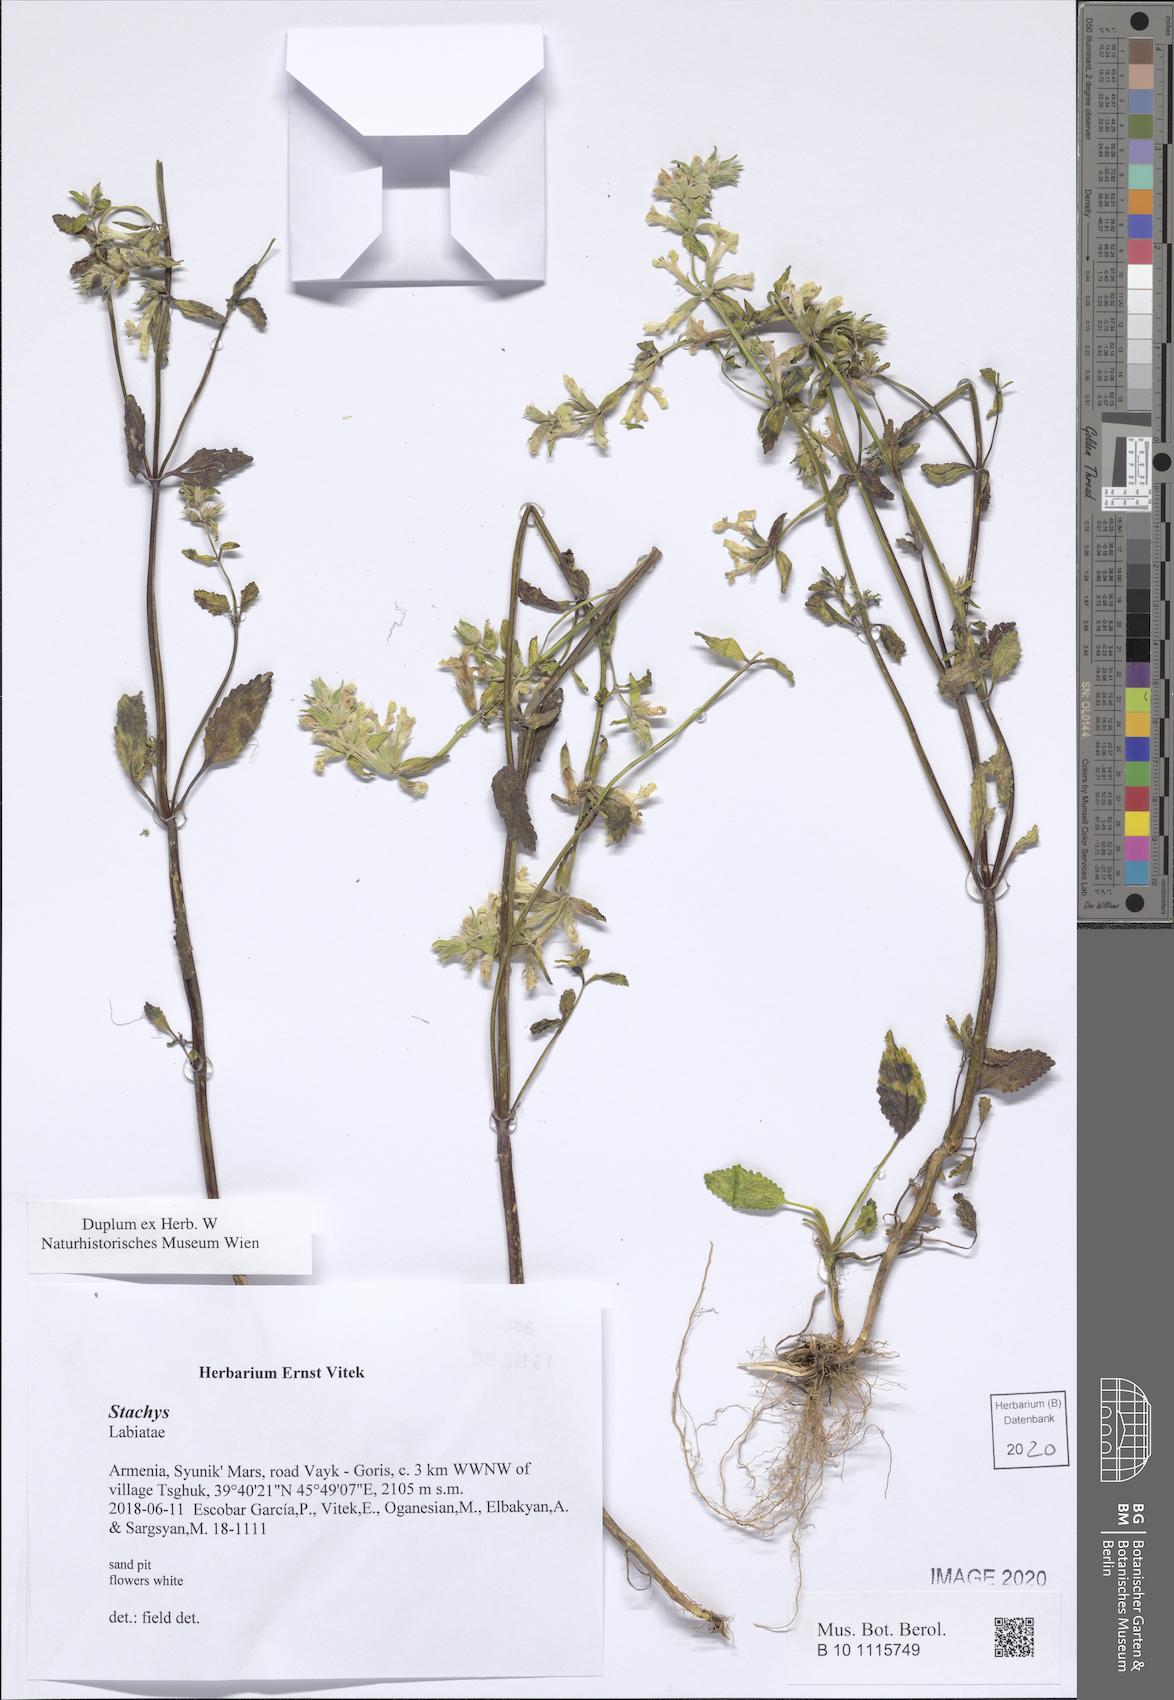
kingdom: Plantae
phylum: Tracheophyta
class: Magnoliopsida
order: Lamiales
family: Lamiaceae
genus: Stachys
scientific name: Stachys
